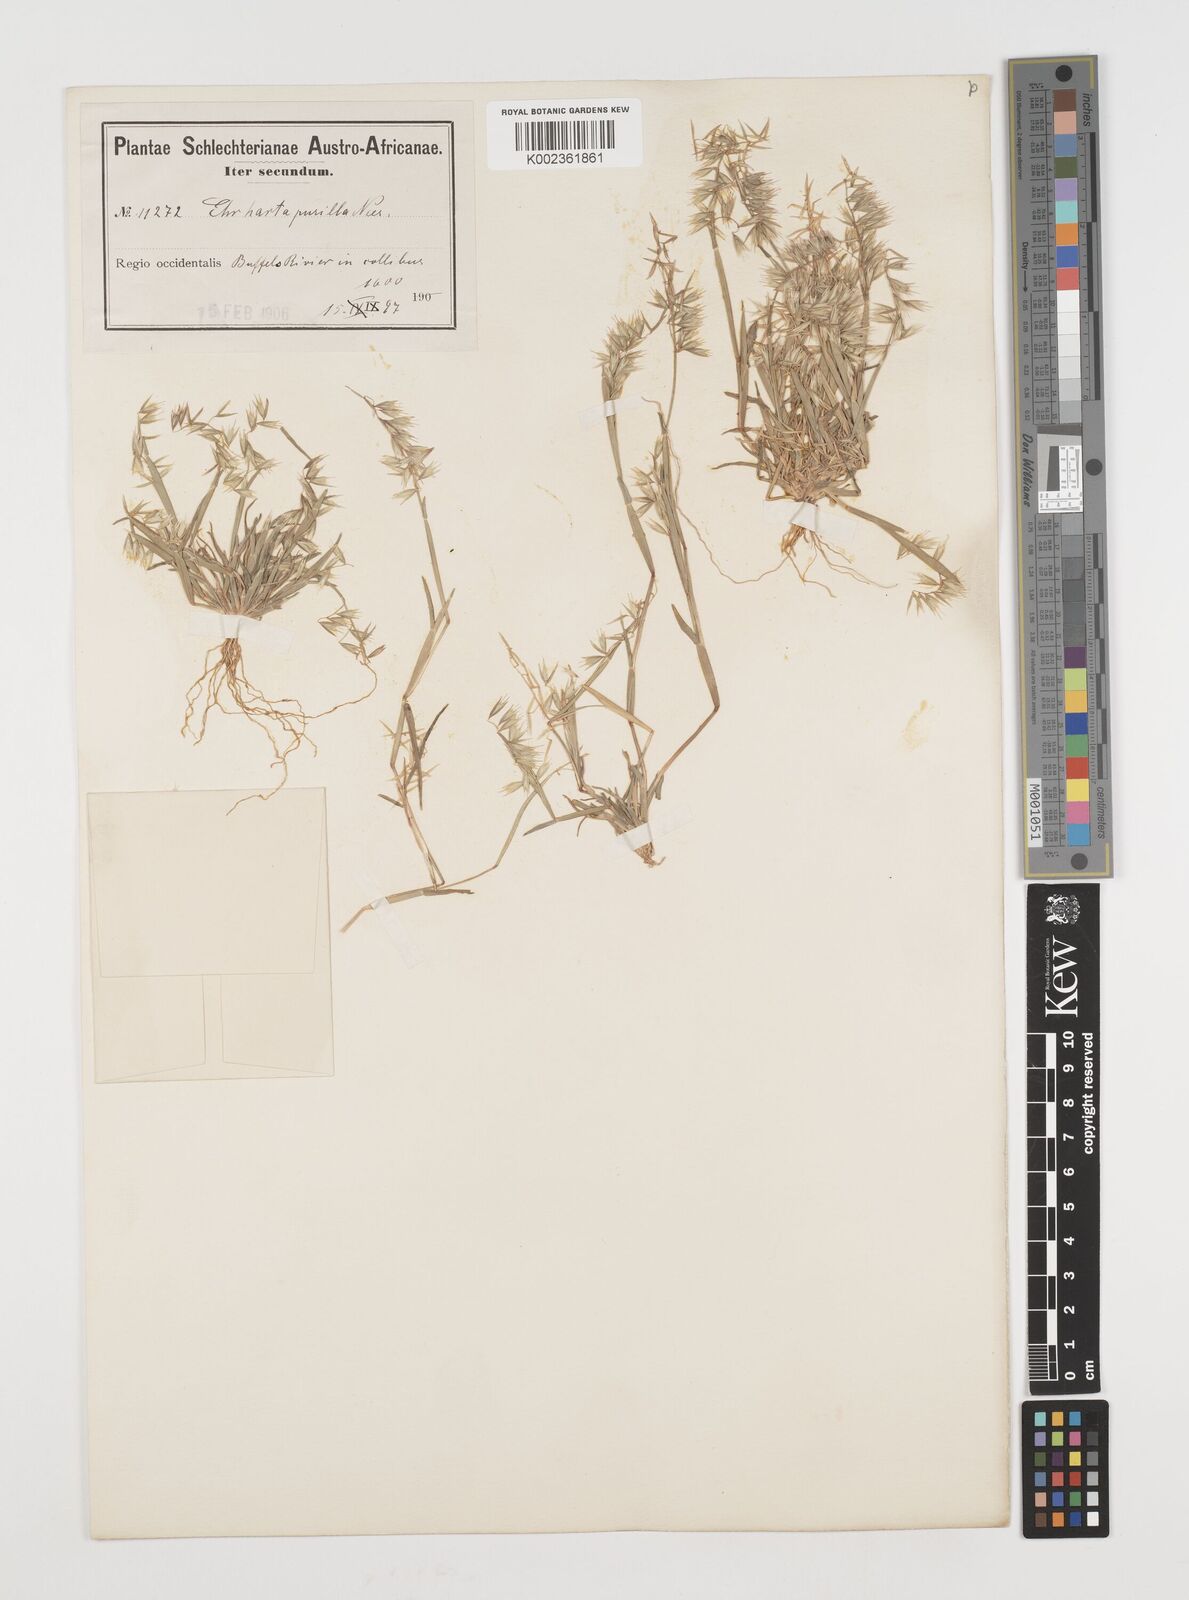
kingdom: Plantae
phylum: Tracheophyta
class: Liliopsida
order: Poales
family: Poaceae
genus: Ehrharta
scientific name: Ehrharta pusilla
